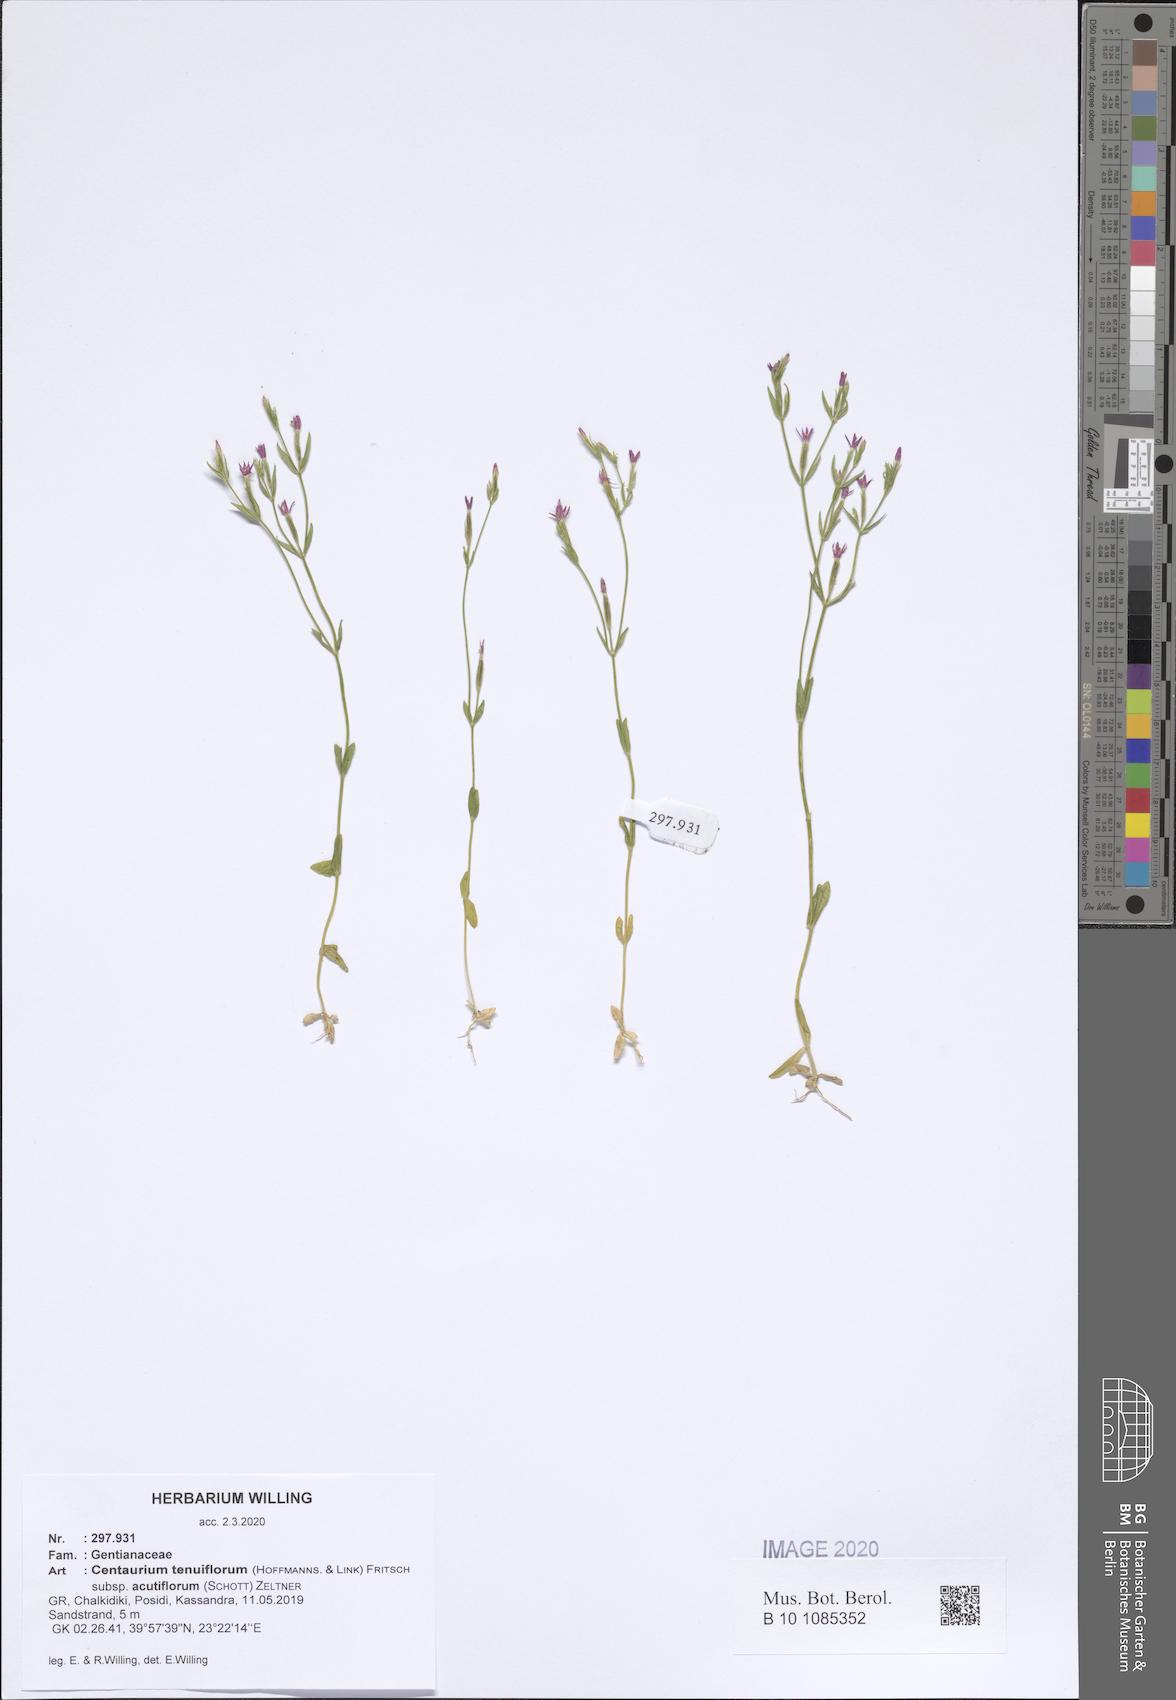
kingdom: Plantae
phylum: Tracheophyta
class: Magnoliopsida
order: Gentianales
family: Gentianaceae
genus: Centaurium
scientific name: Centaurium tenuiflorum
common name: Slender centaury
